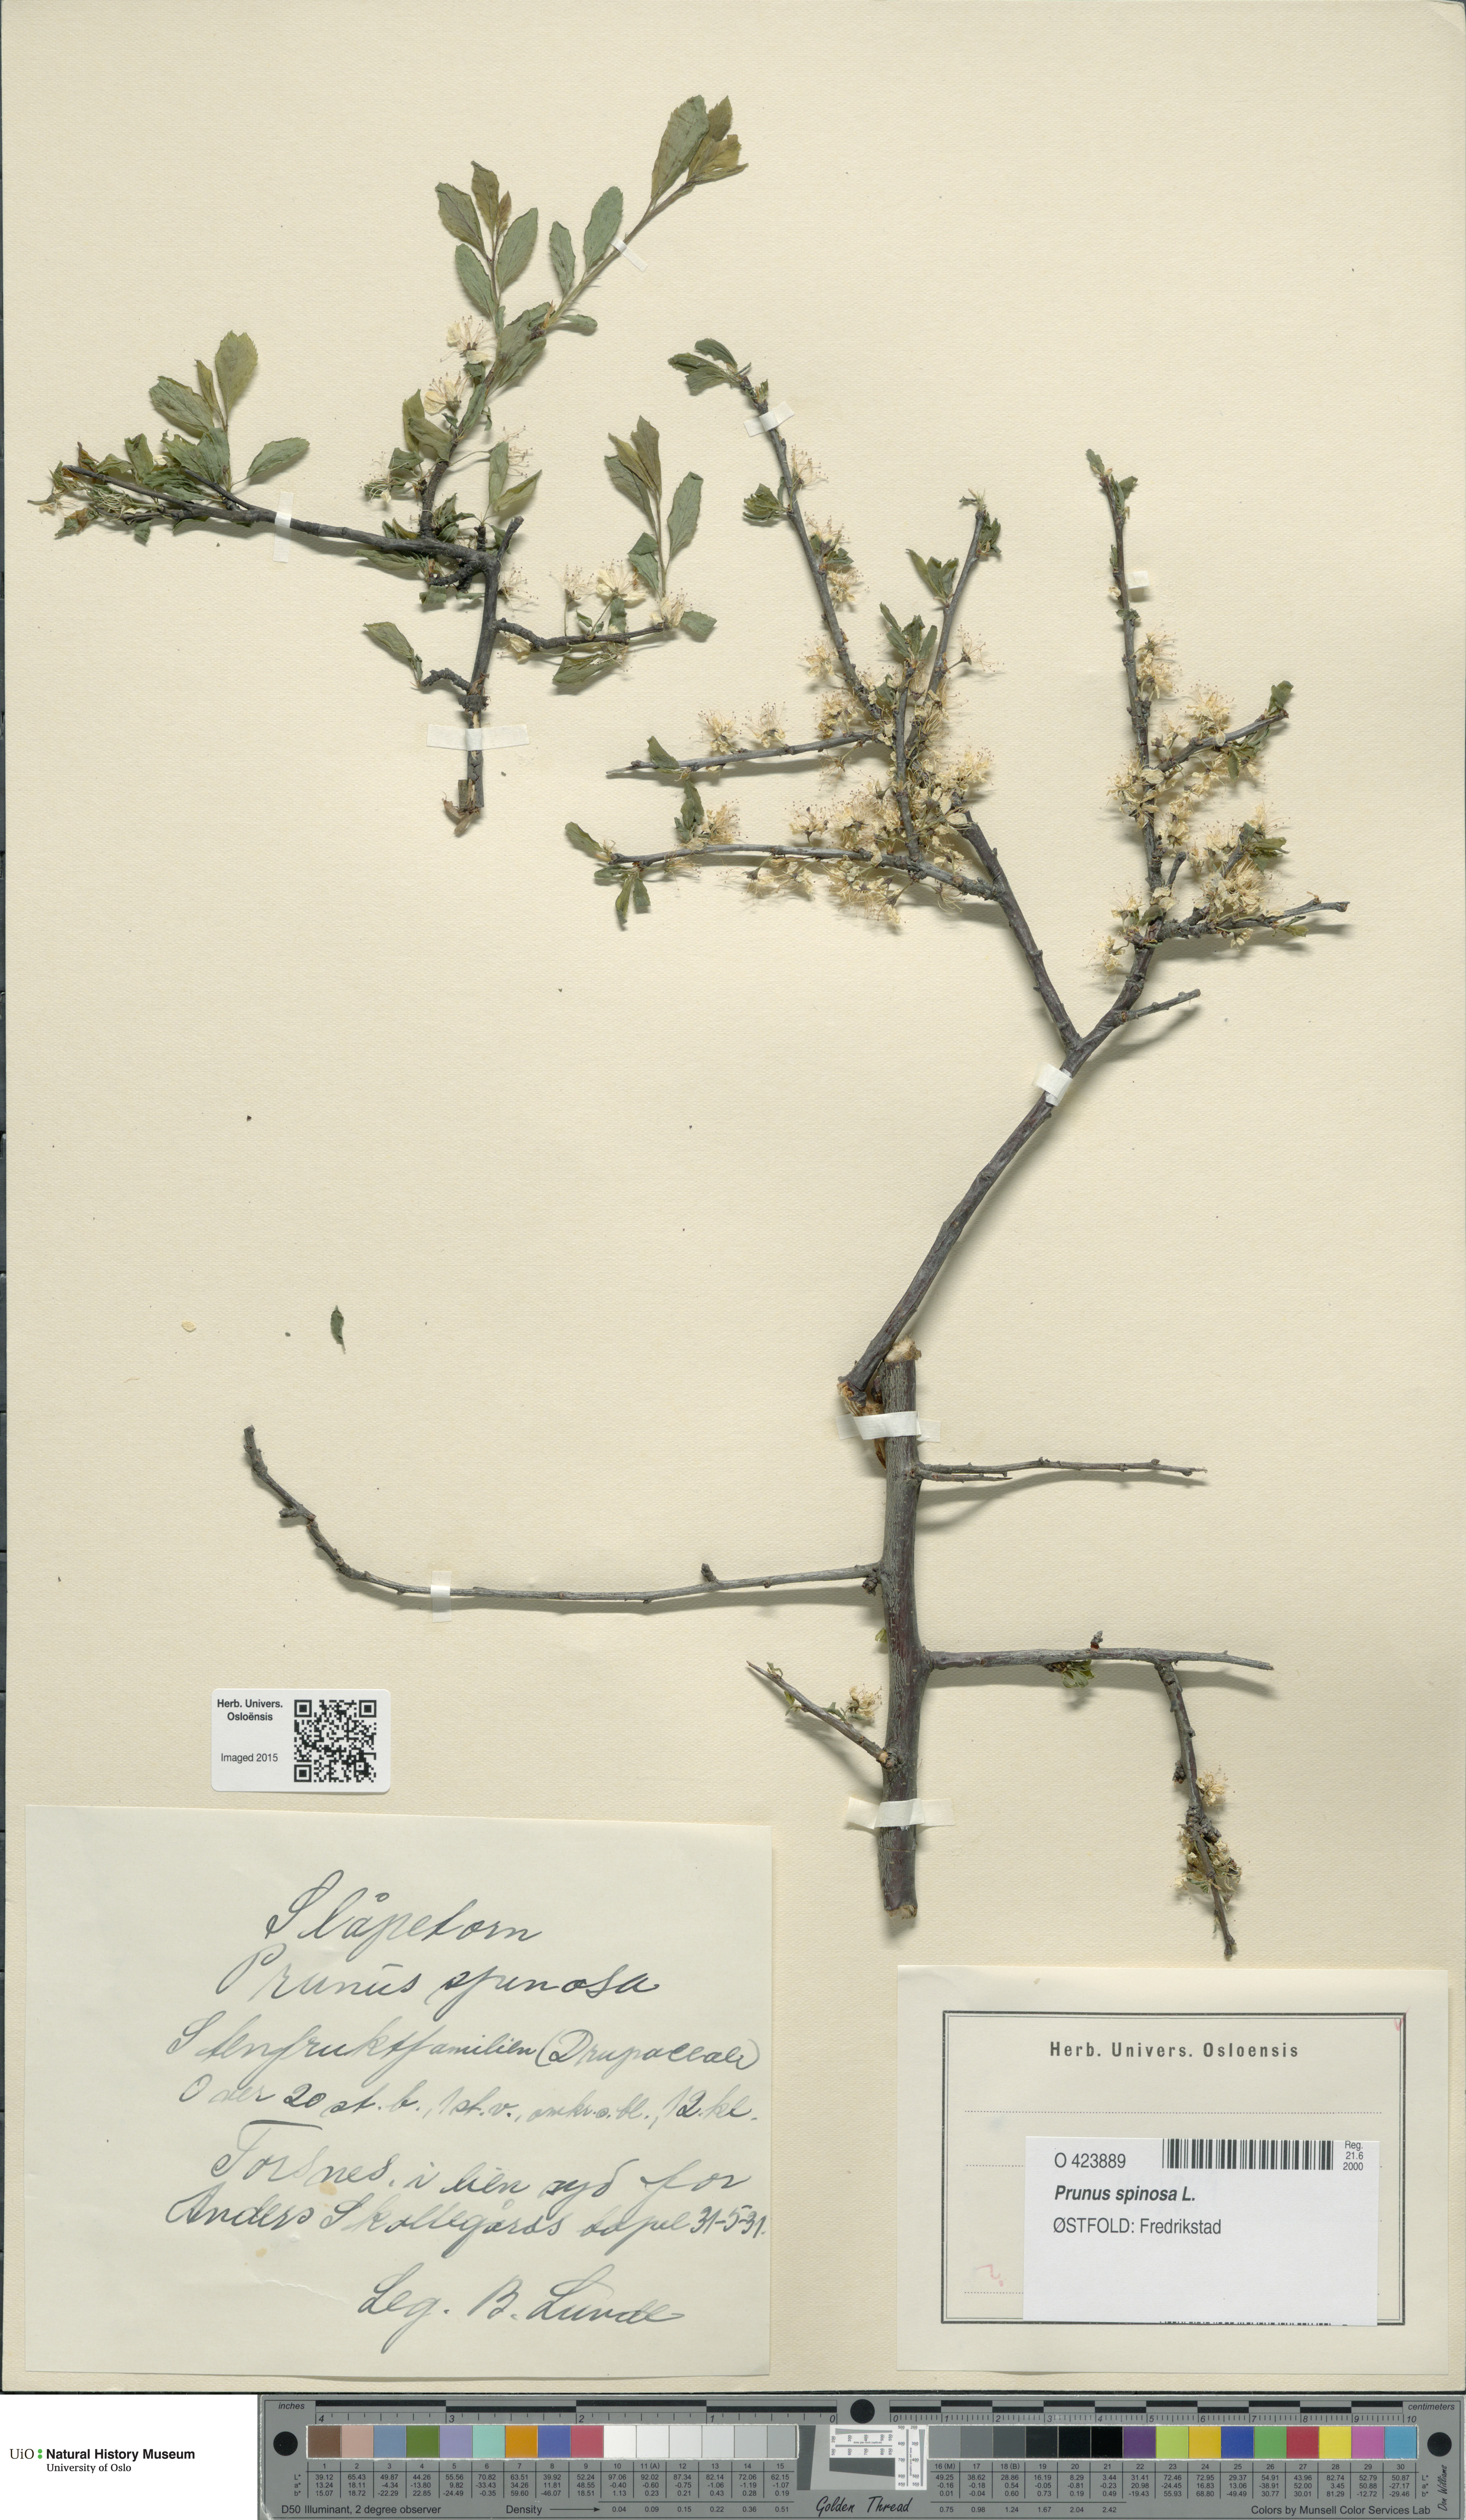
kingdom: Plantae
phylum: Tracheophyta
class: Magnoliopsida
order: Rosales
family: Rosaceae
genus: Prunus
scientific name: Prunus spinosa
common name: Blackthorn
